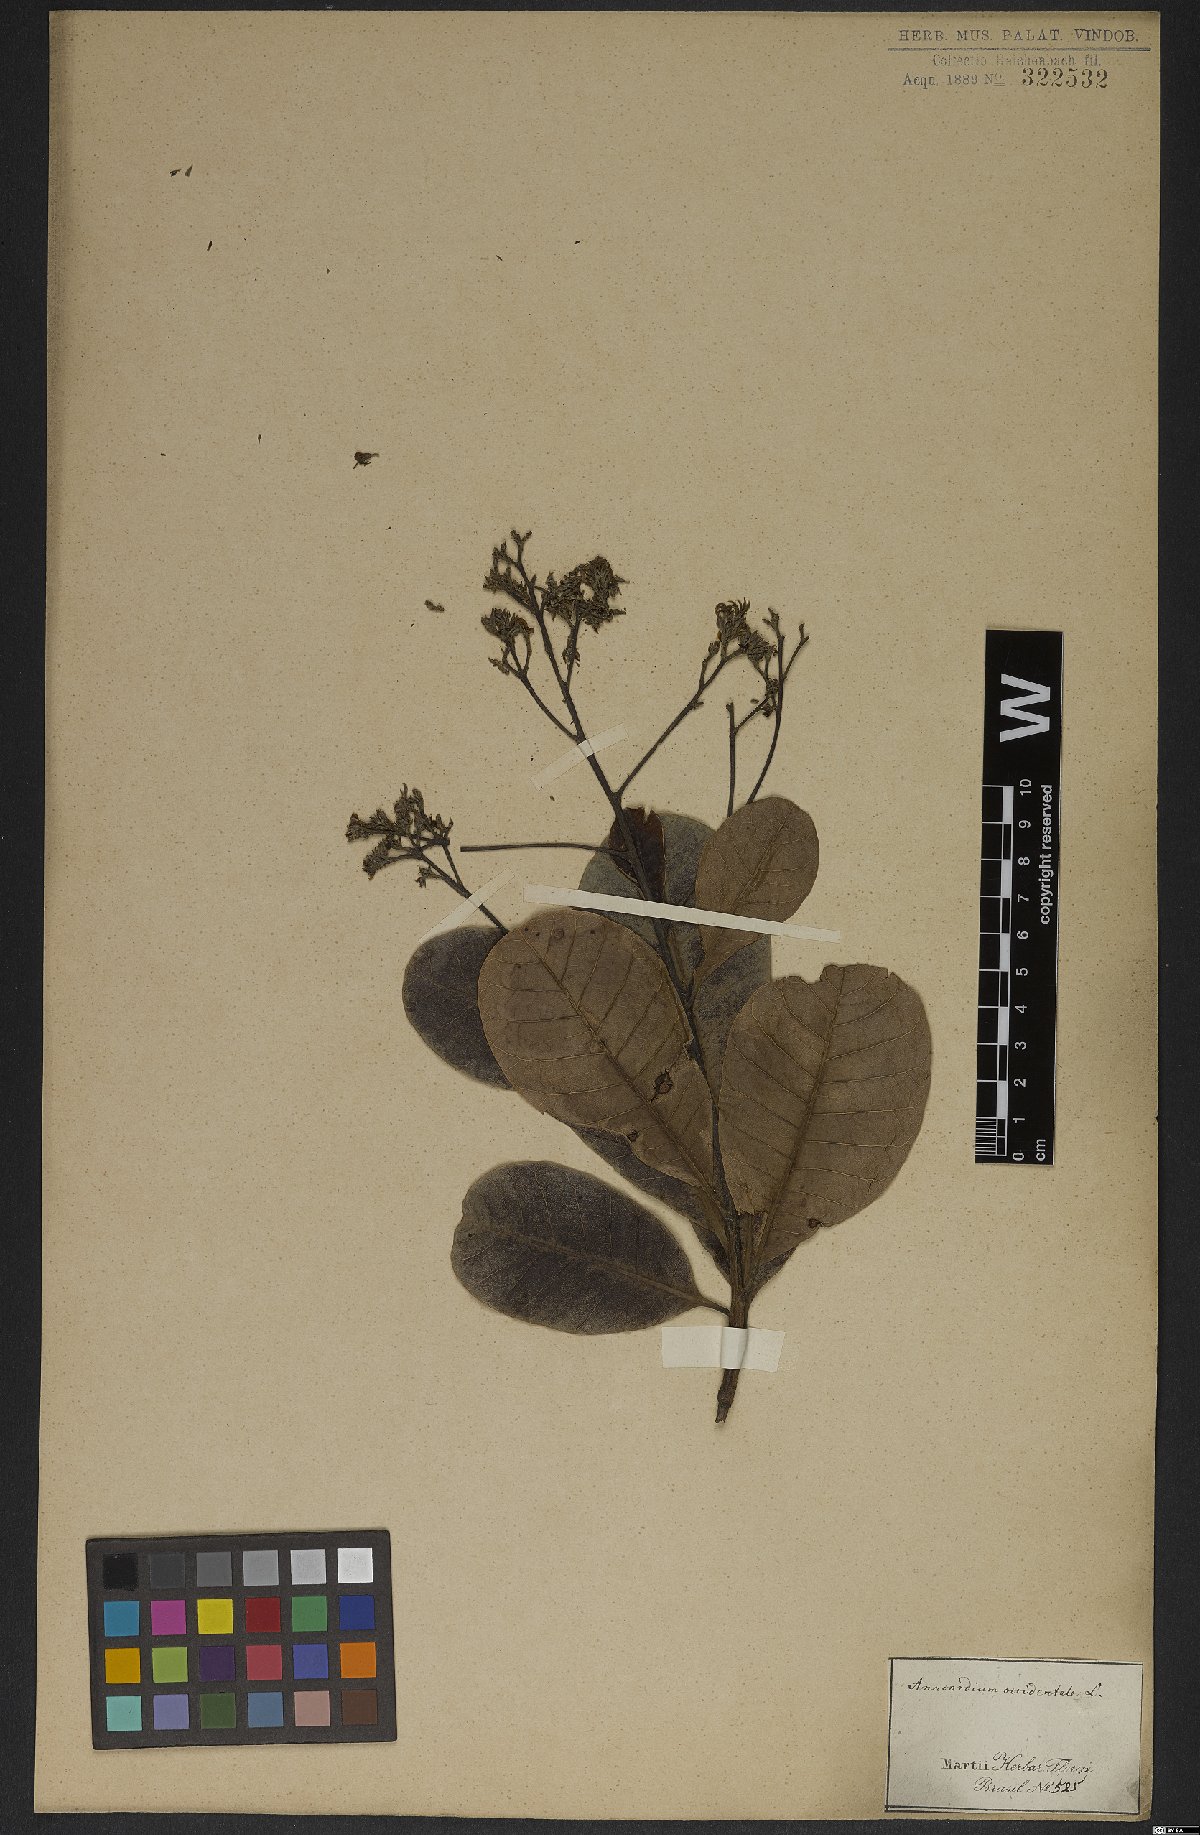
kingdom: Plantae
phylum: Tracheophyta
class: Magnoliopsida
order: Sapindales
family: Anacardiaceae
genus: Anacardium
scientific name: Anacardium occidentale
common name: Cashew
